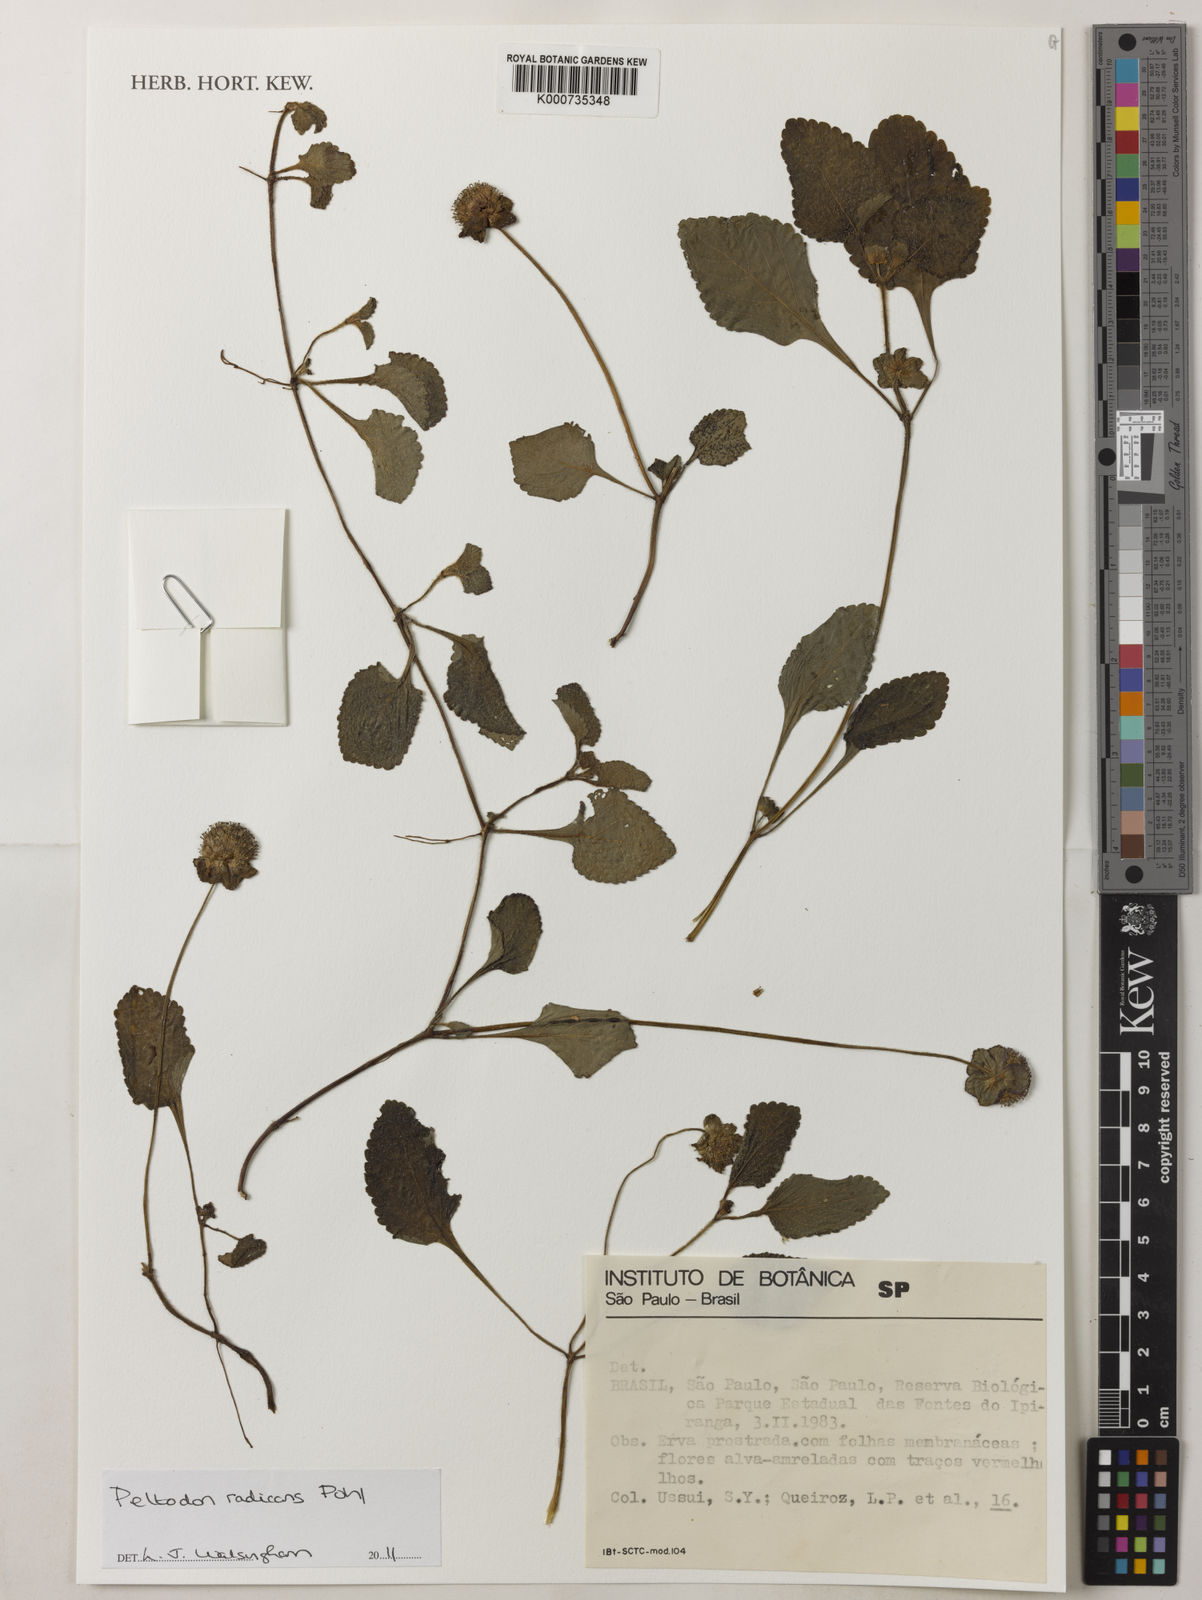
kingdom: Plantae
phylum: Tracheophyta
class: Magnoliopsida
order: Lamiales
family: Lamiaceae
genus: Hyptis
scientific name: Hyptis radicans
